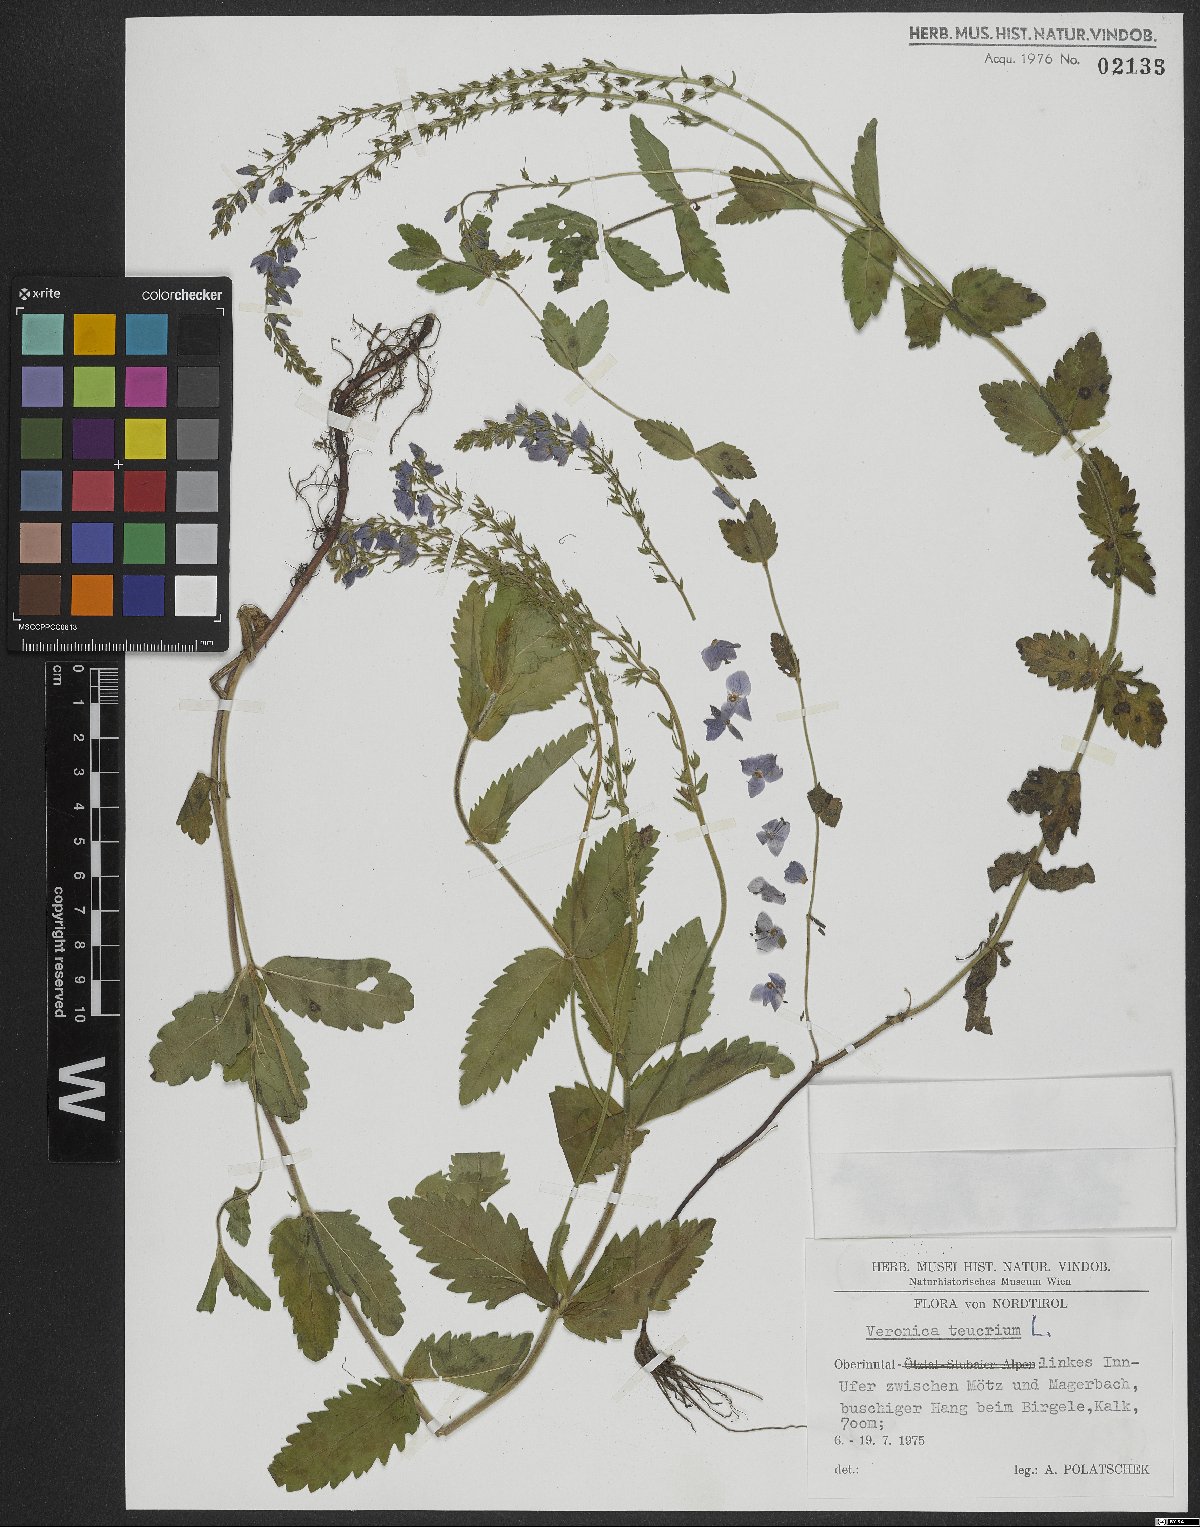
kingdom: Plantae
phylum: Tracheophyta
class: Magnoliopsida
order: Lamiales
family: Plantaginaceae
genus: Veronica
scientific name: Veronica teucrium
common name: Large speedwell
